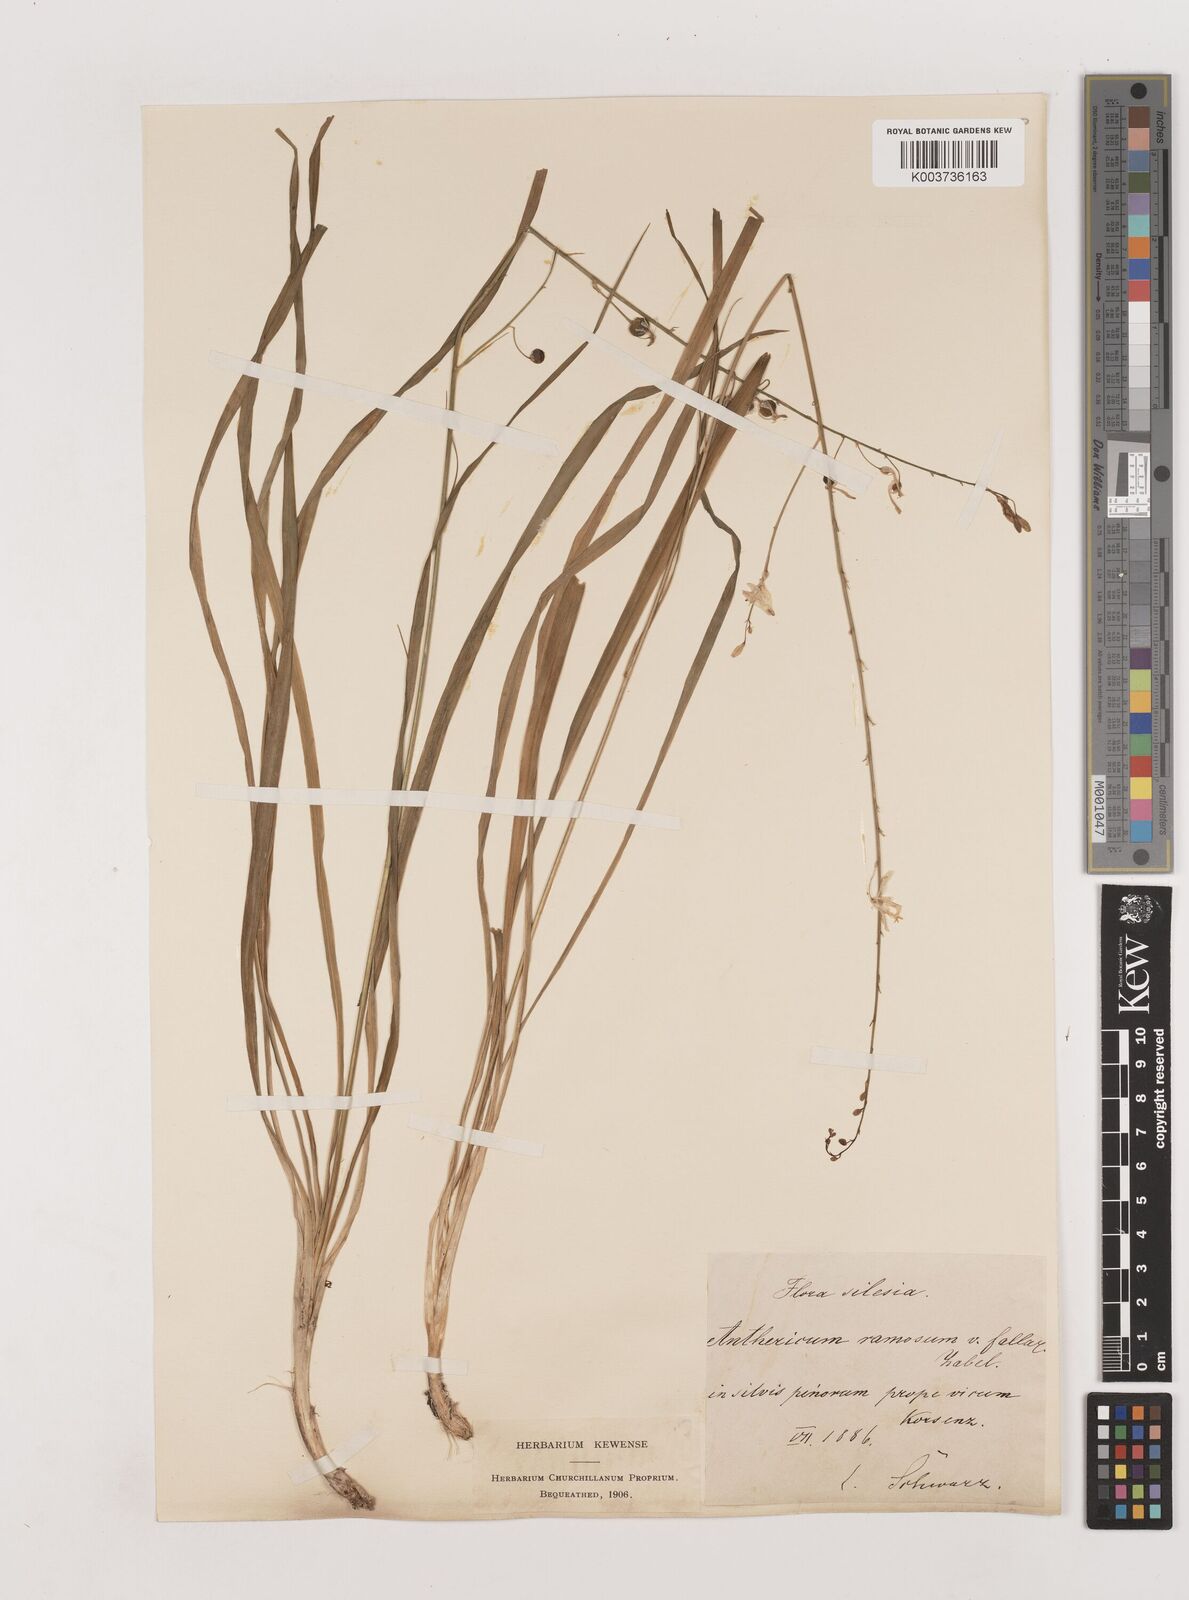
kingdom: Plantae
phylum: Tracheophyta
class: Liliopsida
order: Asparagales
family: Asparagaceae
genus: Anthericum
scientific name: Anthericum ramosum
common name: Branched st. bernard's-lily
